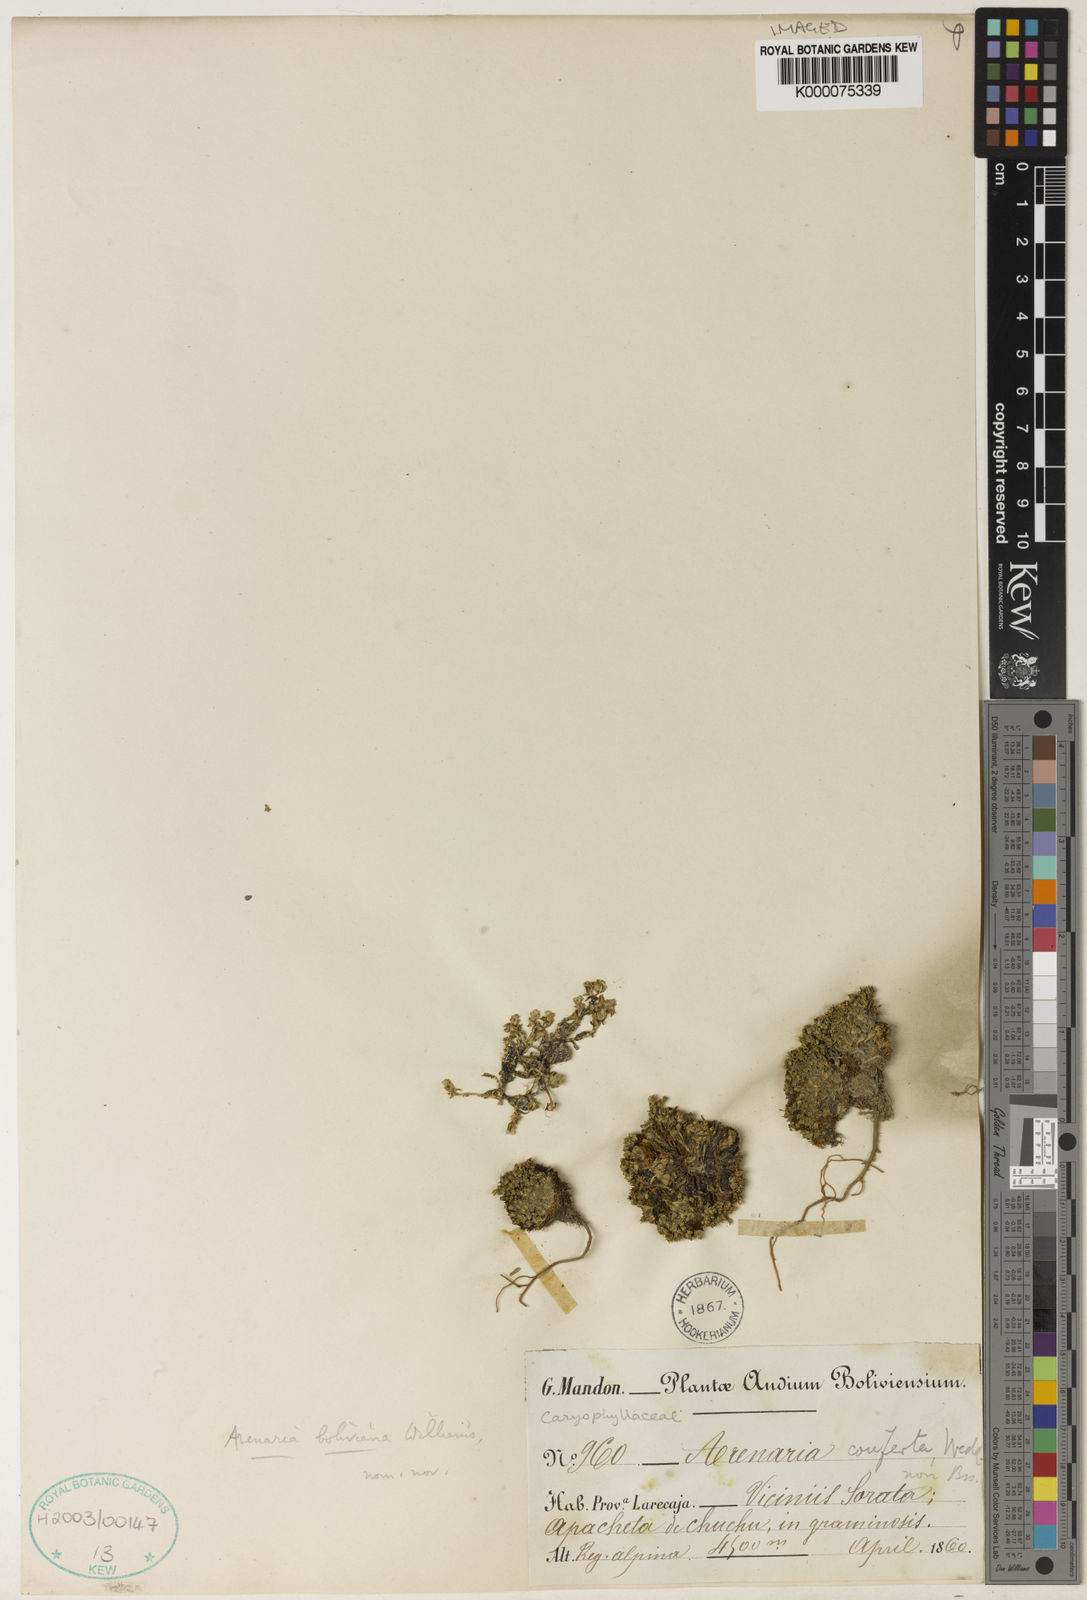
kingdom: Plantae
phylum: Tracheophyta
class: Magnoliopsida
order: Caryophyllales
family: Caryophyllaceae
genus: Arenaria
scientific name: Arenaria boliviana
